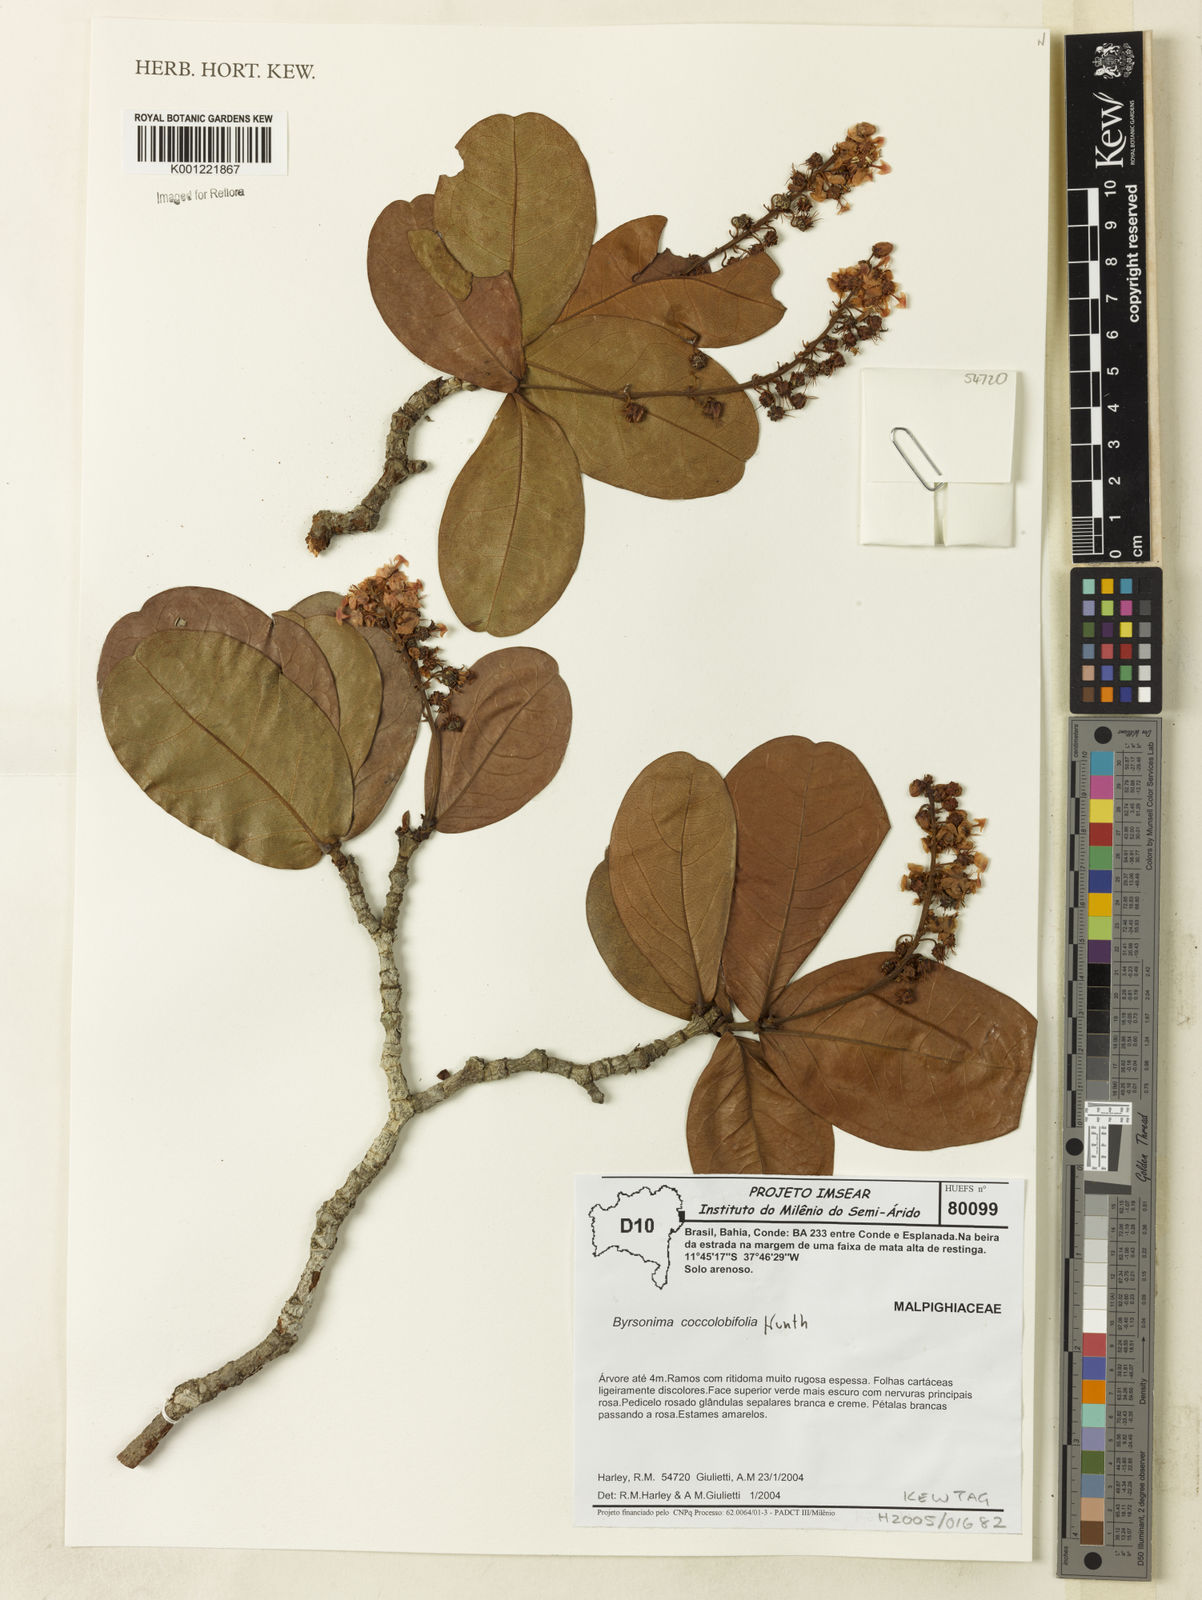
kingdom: Plantae
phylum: Tracheophyta
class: Magnoliopsida
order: Malpighiales
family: Malpighiaceae
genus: Byrsonima
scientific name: Byrsonima coccolobifolia
